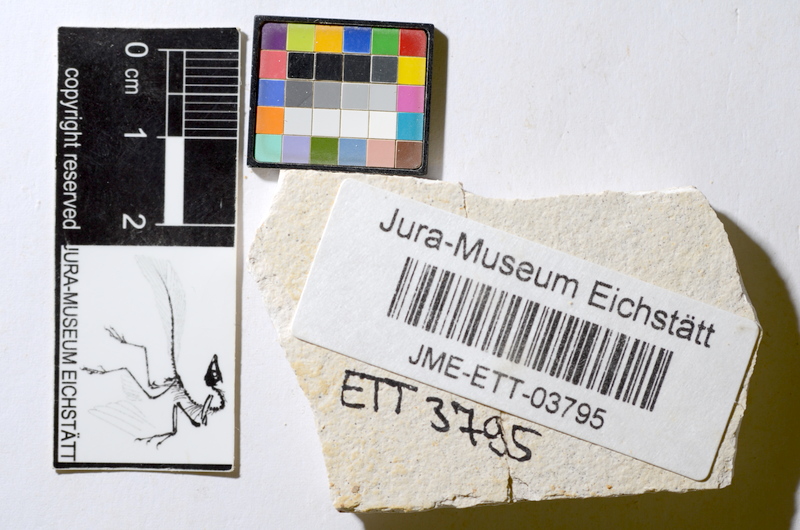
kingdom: Animalia
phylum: Chordata
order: Salmoniformes
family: Orthogonikleithridae
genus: Orthogonikleithrus
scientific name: Orthogonikleithrus hoelli
